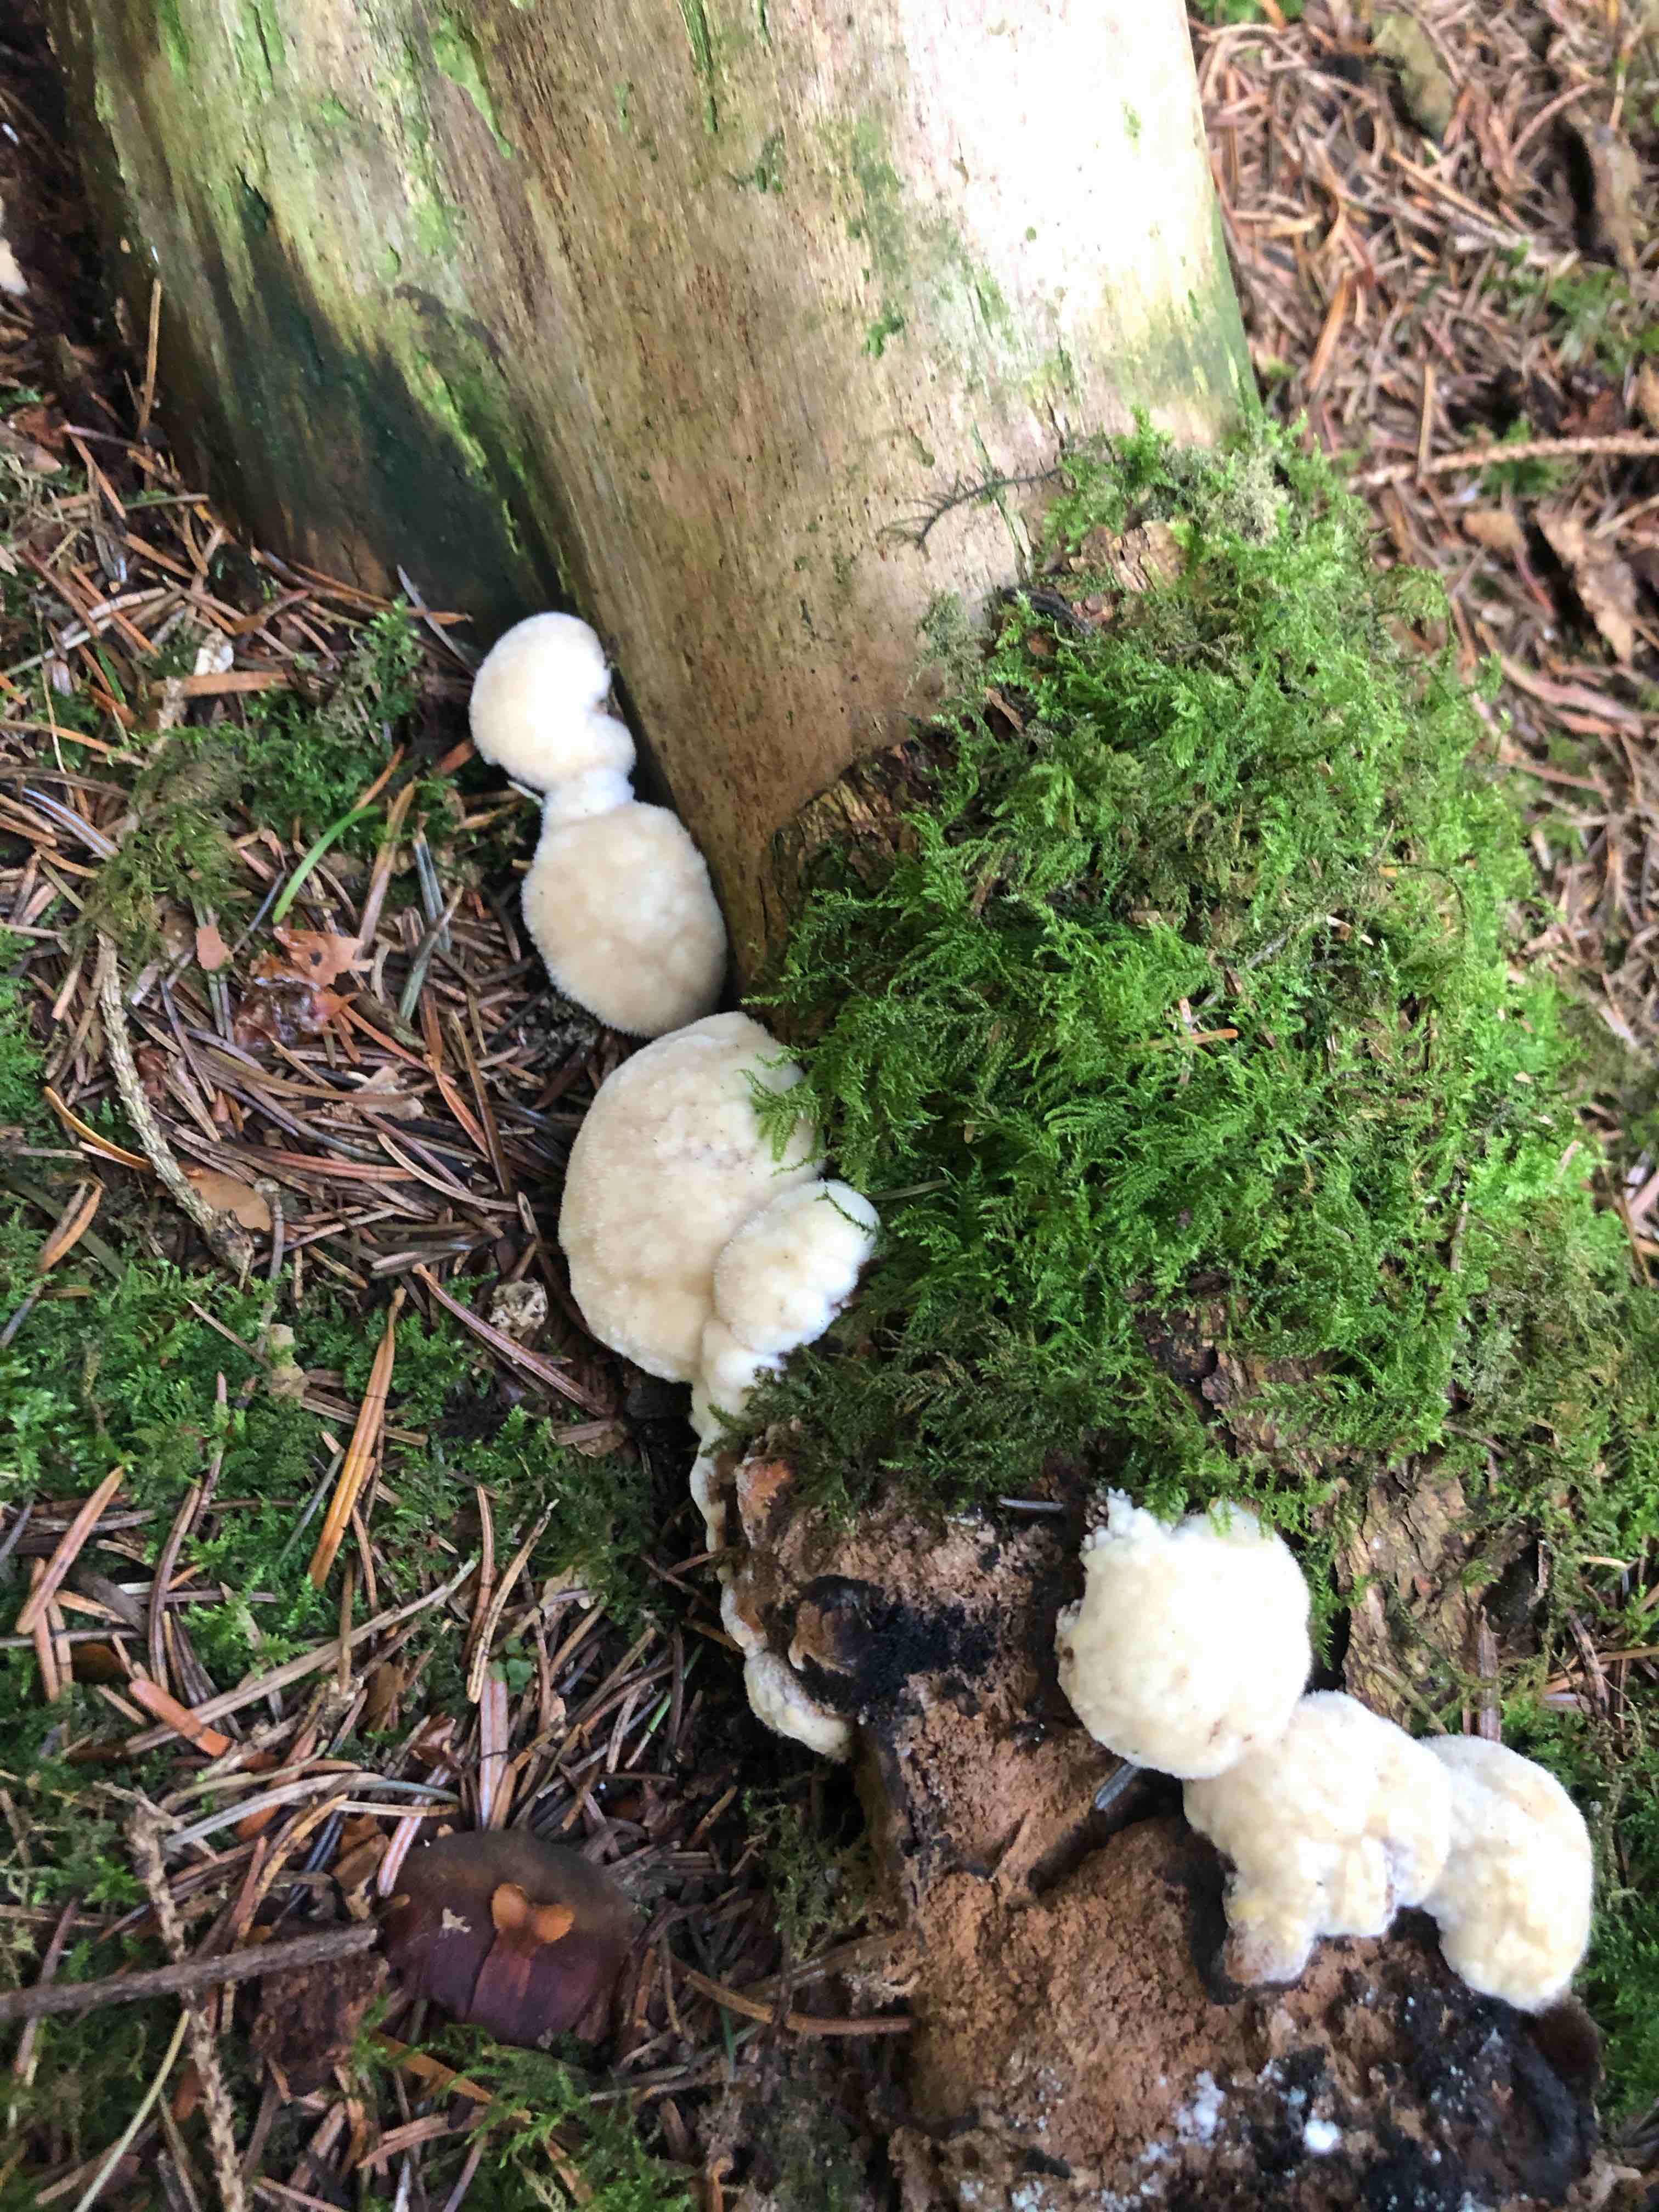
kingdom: Fungi
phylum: Basidiomycota
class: Agaricomycetes
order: Polyporales
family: Dacryobolaceae
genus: Postia
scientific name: Postia ptychogaster
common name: støvende kødporesvamp
